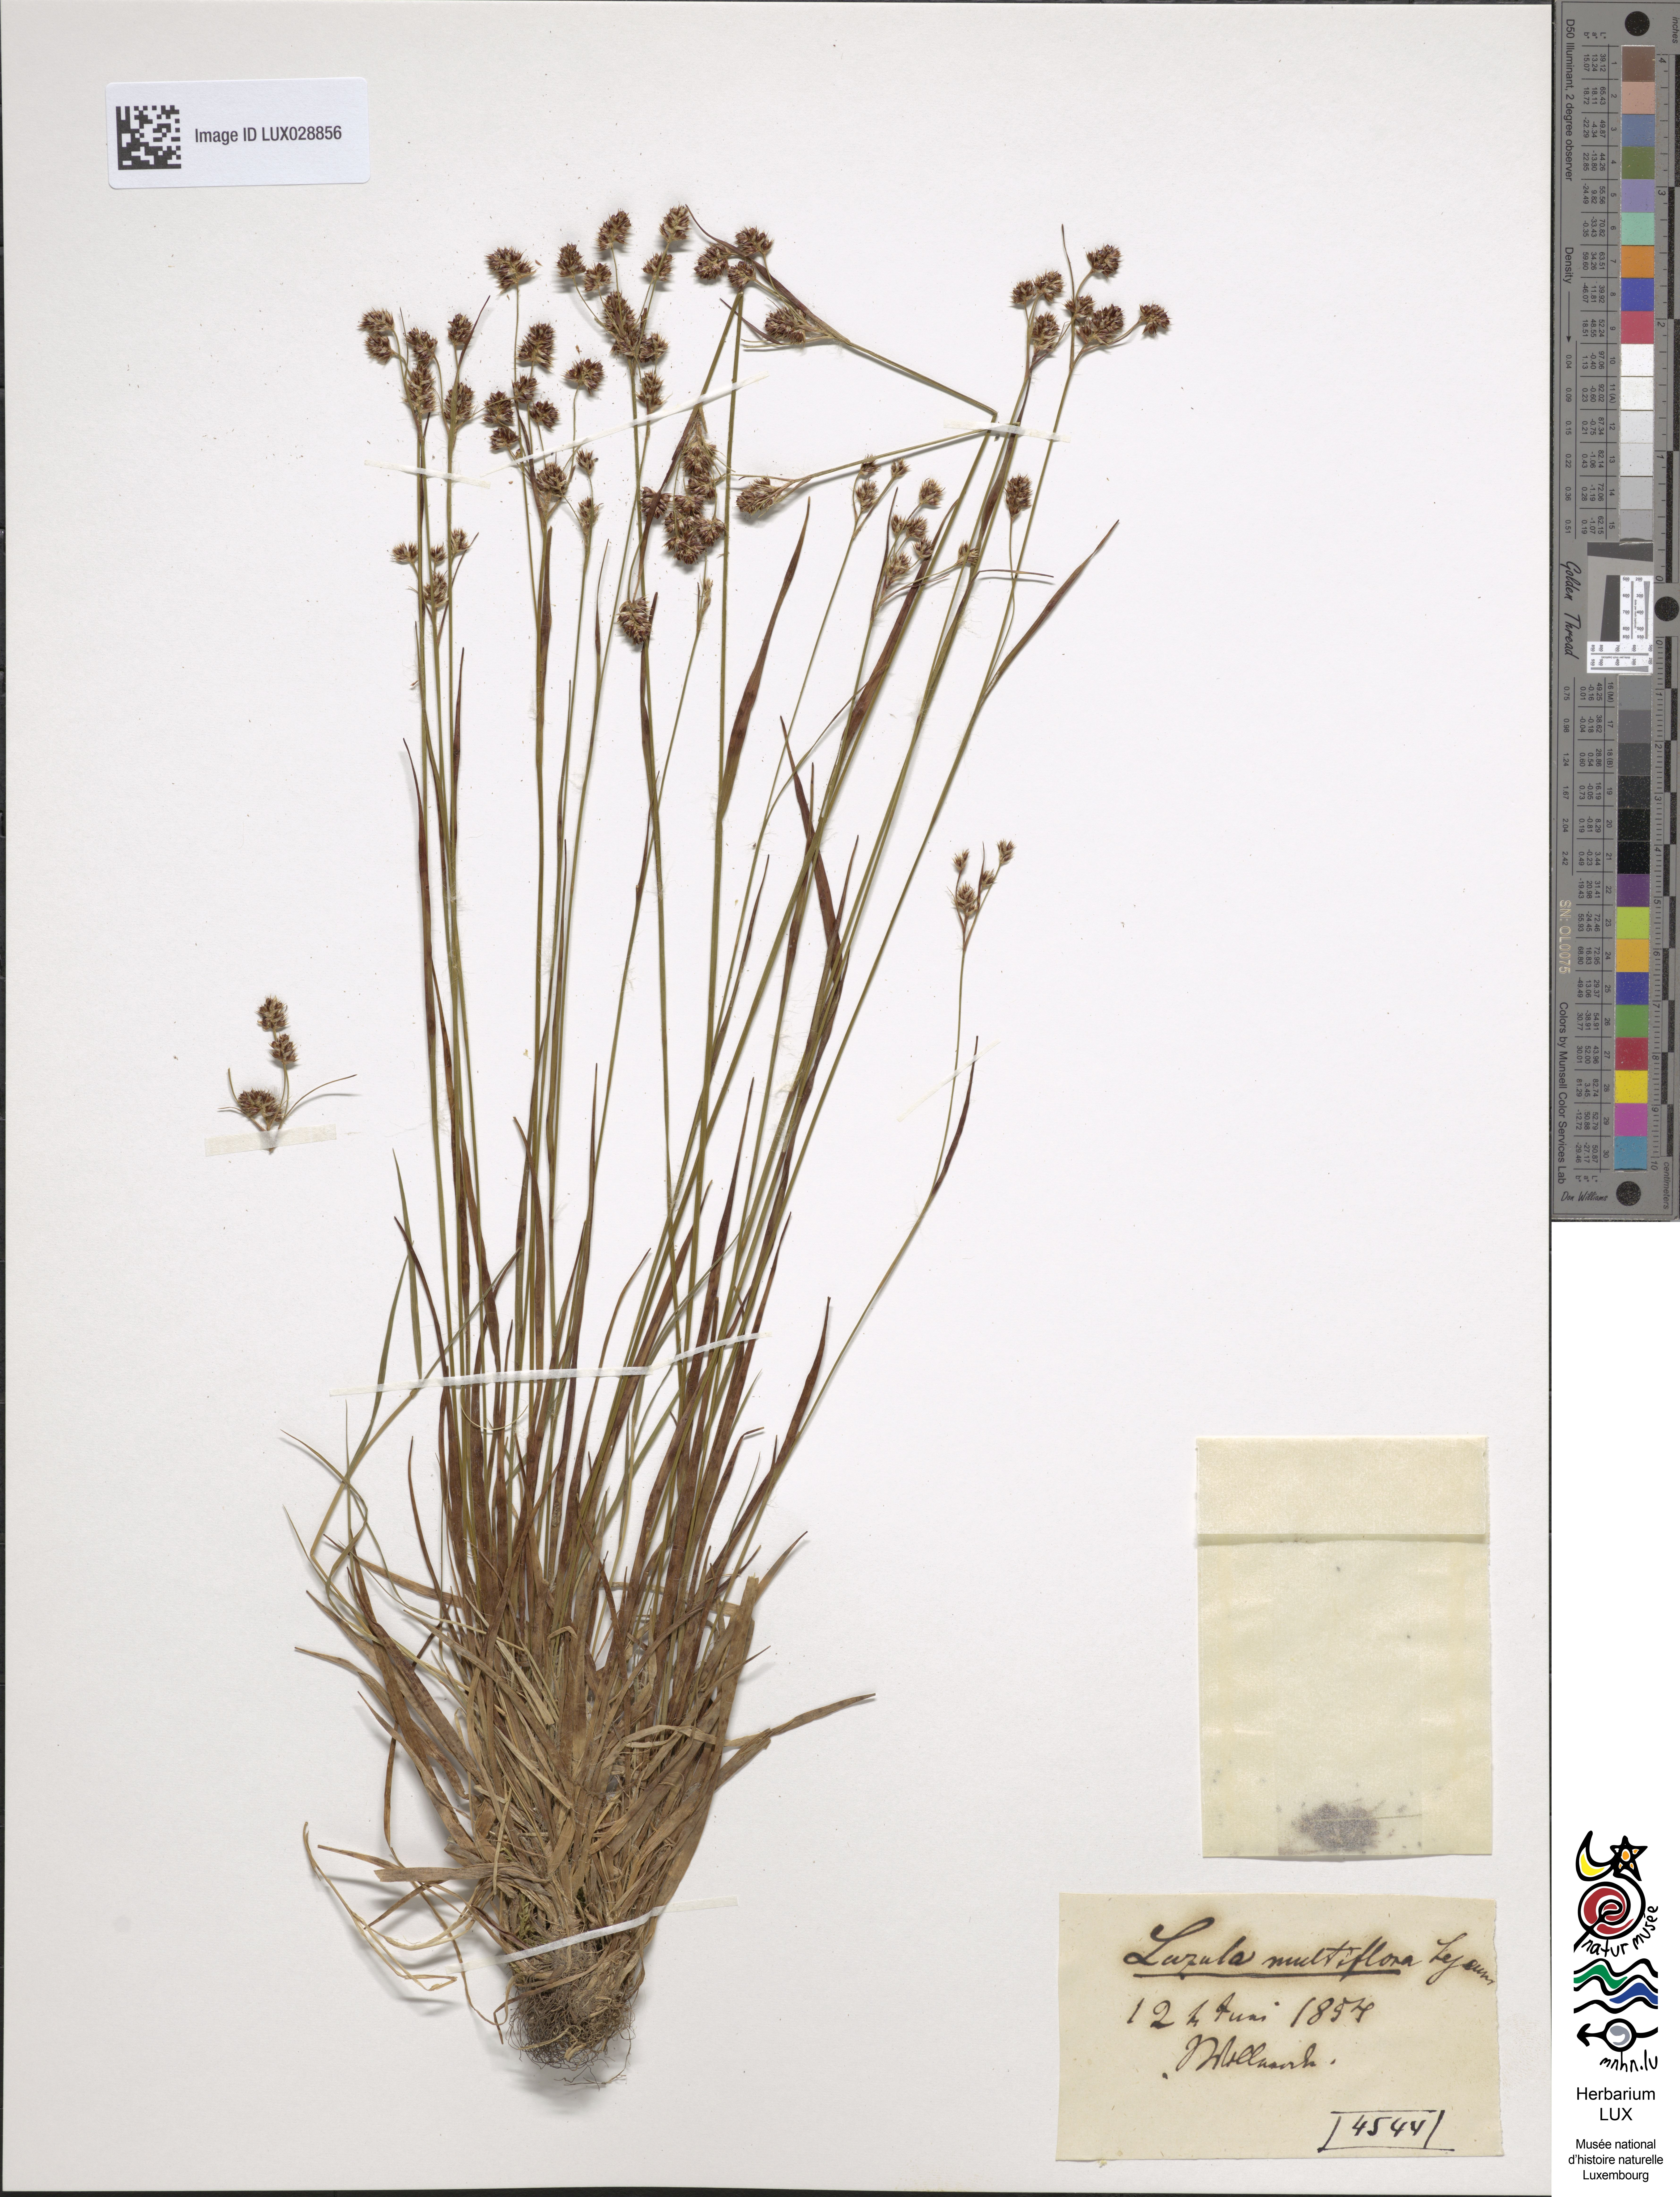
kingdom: Plantae
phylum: Tracheophyta
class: Liliopsida
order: Poales
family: Juncaceae
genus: Luzula
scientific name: Luzula multiflora
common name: Heath wood-rush
